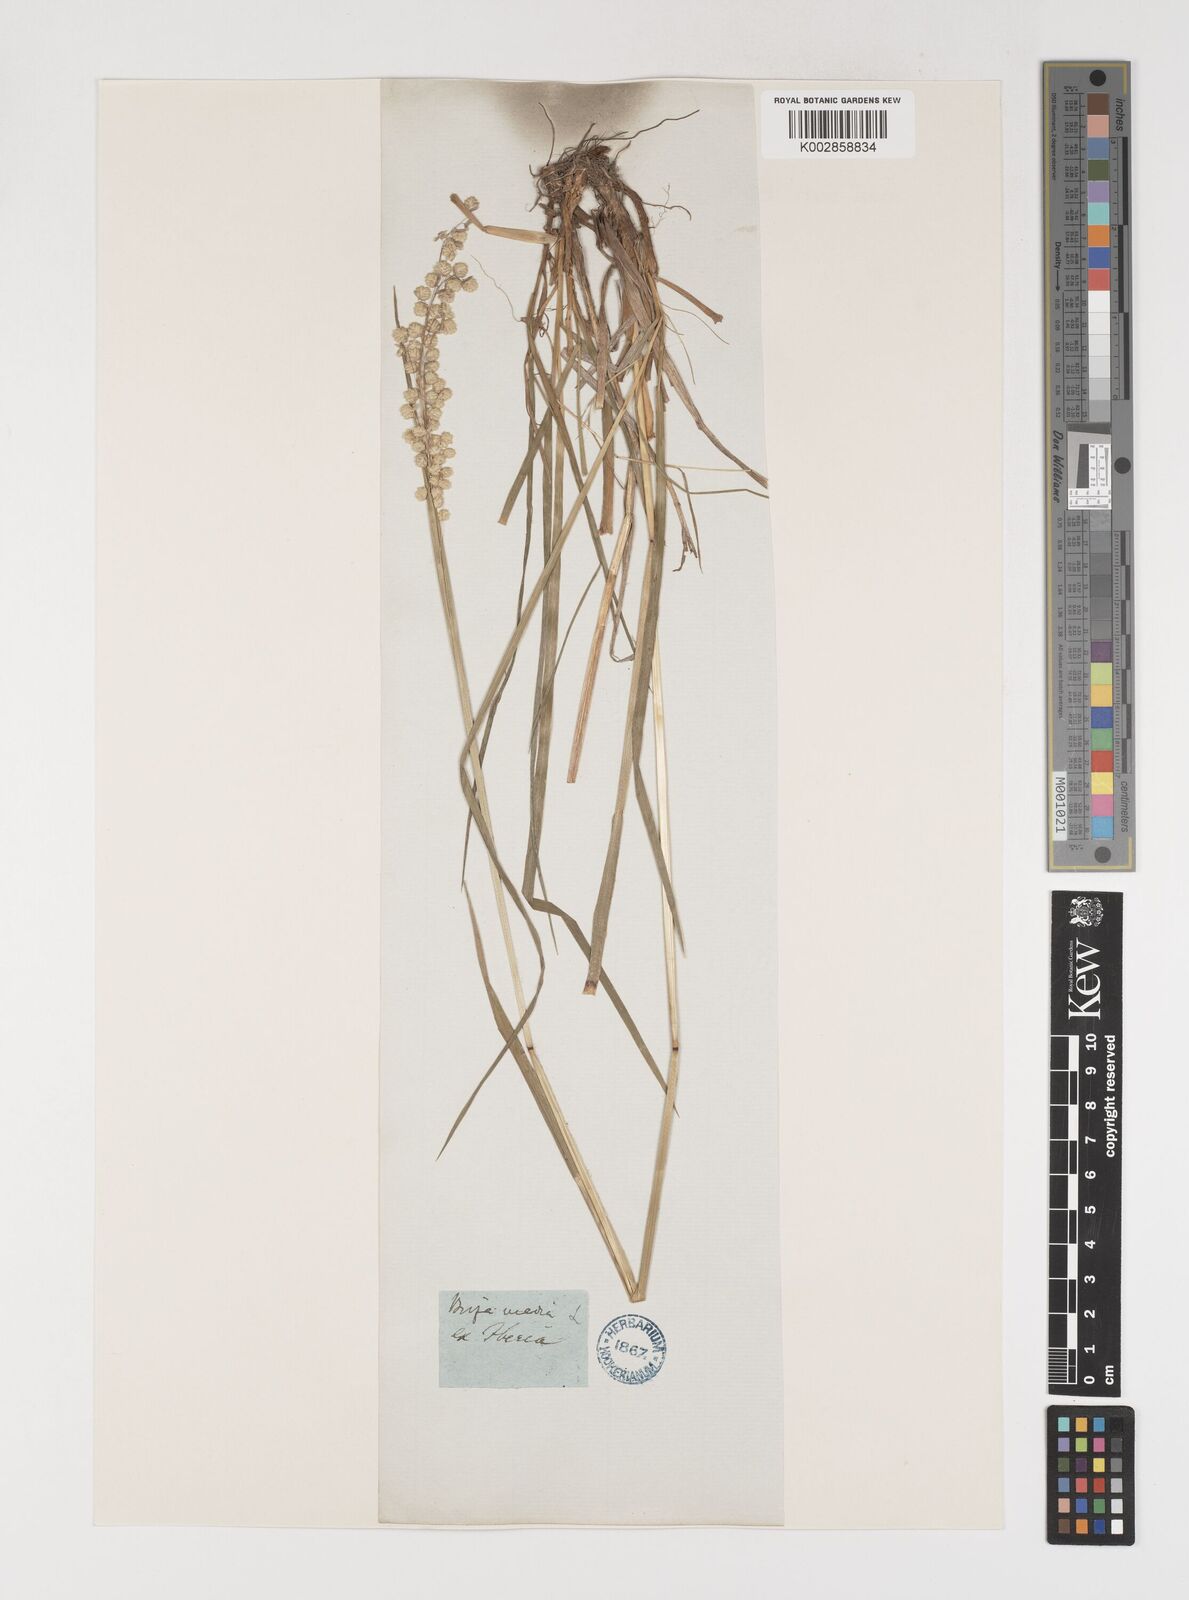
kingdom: Plantae
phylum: Tracheophyta
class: Liliopsida
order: Poales
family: Poaceae
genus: Briza
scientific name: Briza media
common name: Quaking grass
